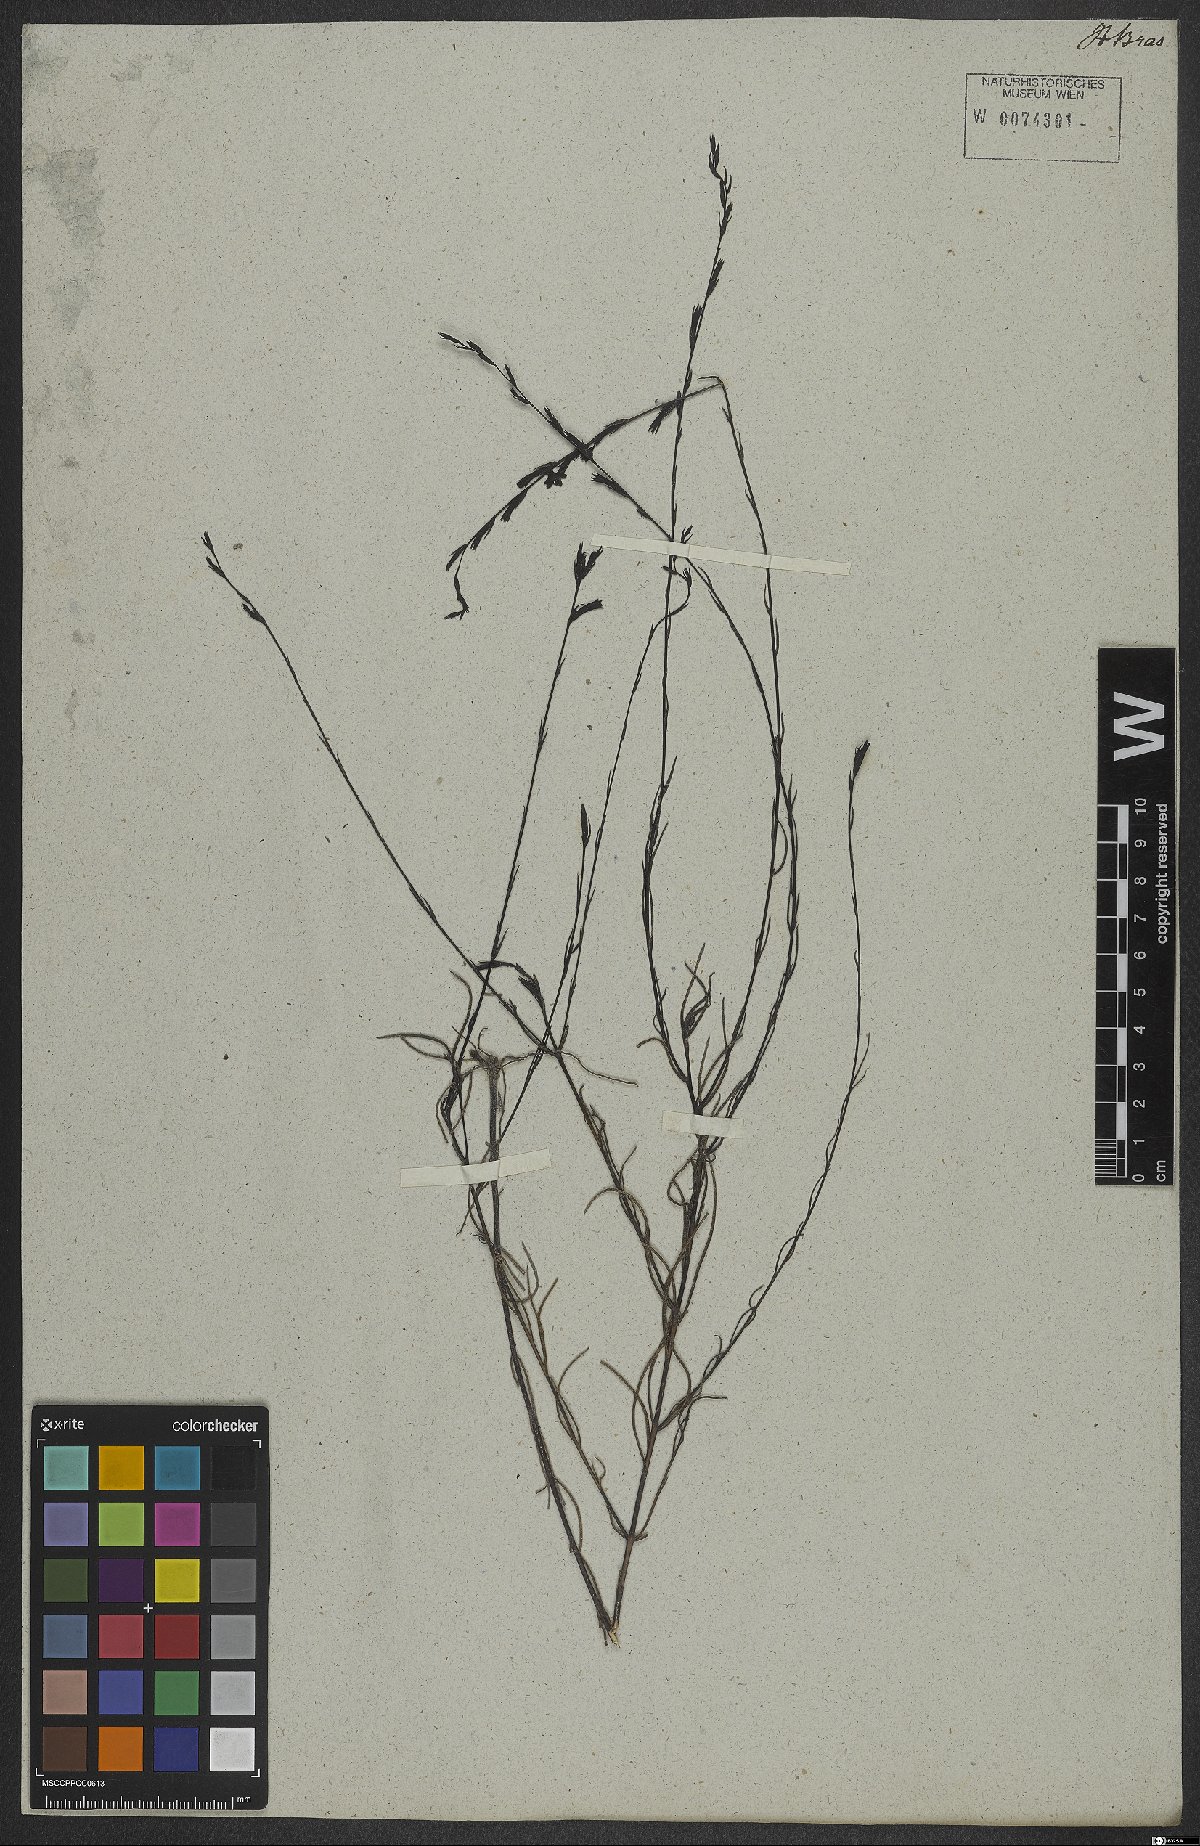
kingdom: Plantae
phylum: Tracheophyta
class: Magnoliopsida
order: Lamiales
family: Orobanchaceae
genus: Buchnera
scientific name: Buchnera palustris
